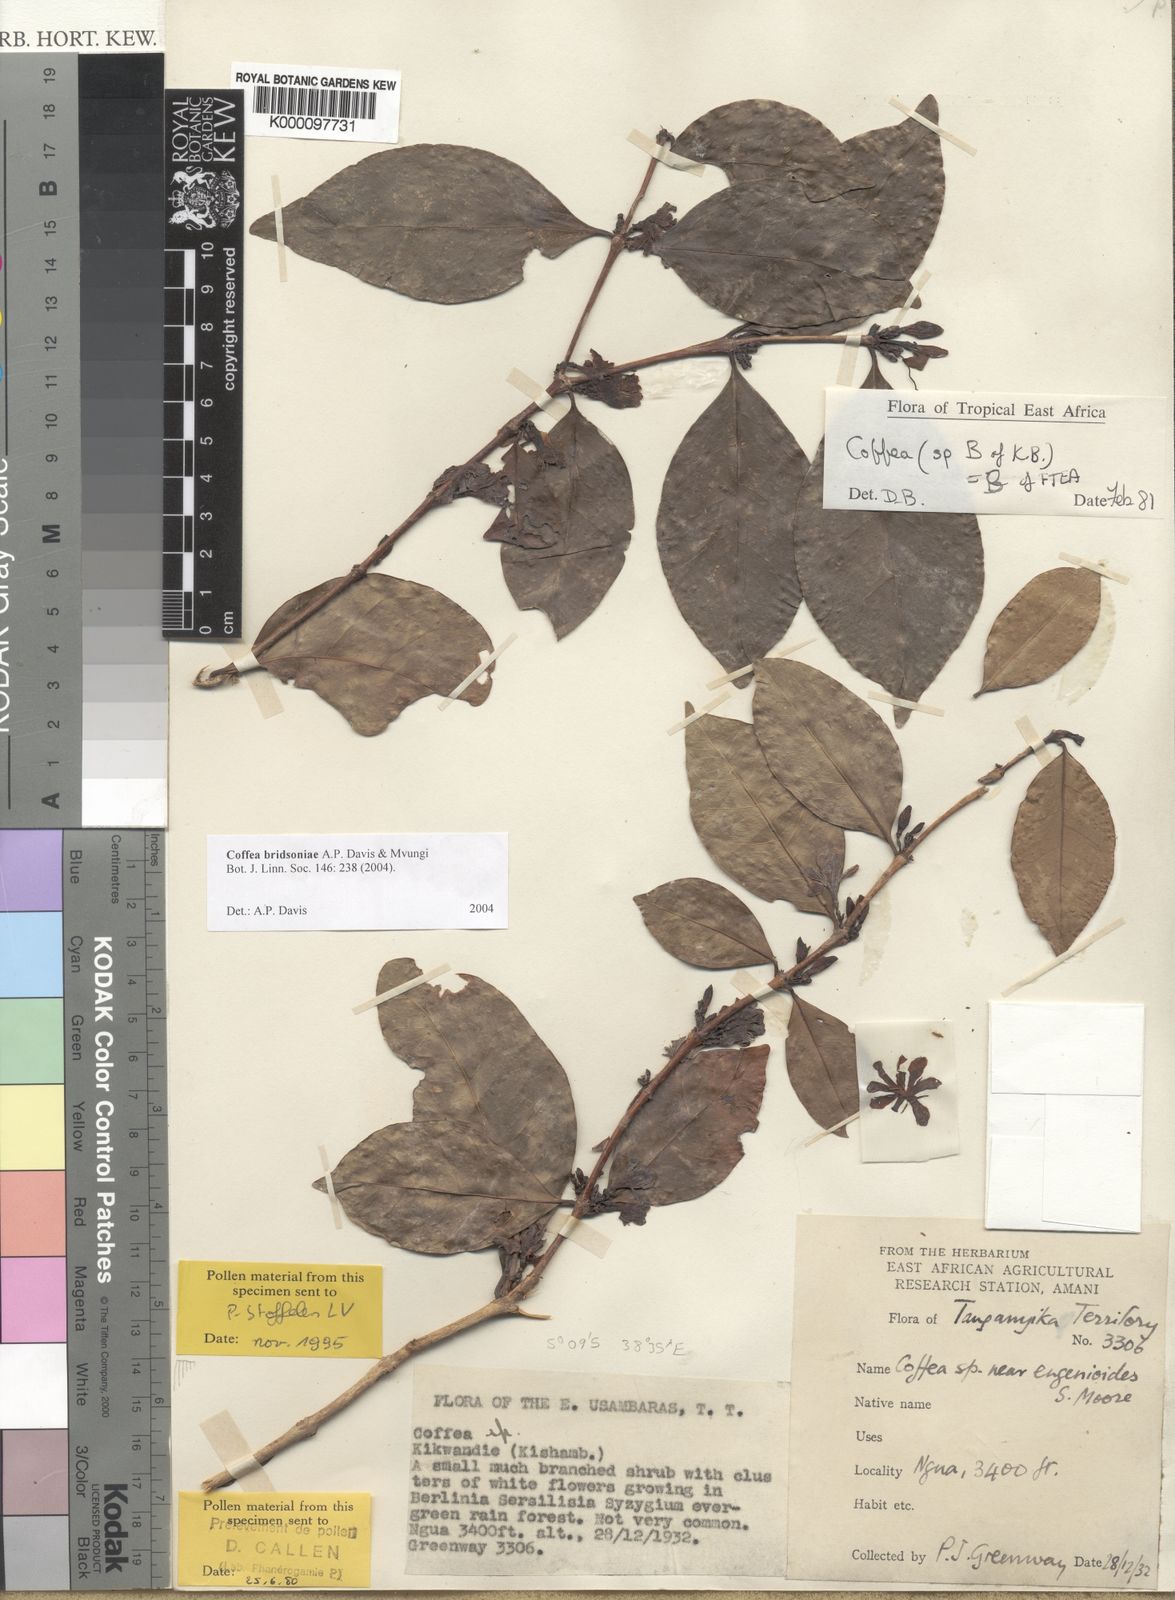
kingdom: Plantae
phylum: Tracheophyta
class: Magnoliopsida
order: Gentianales
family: Rubiaceae
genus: Coffea
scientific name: Coffea
